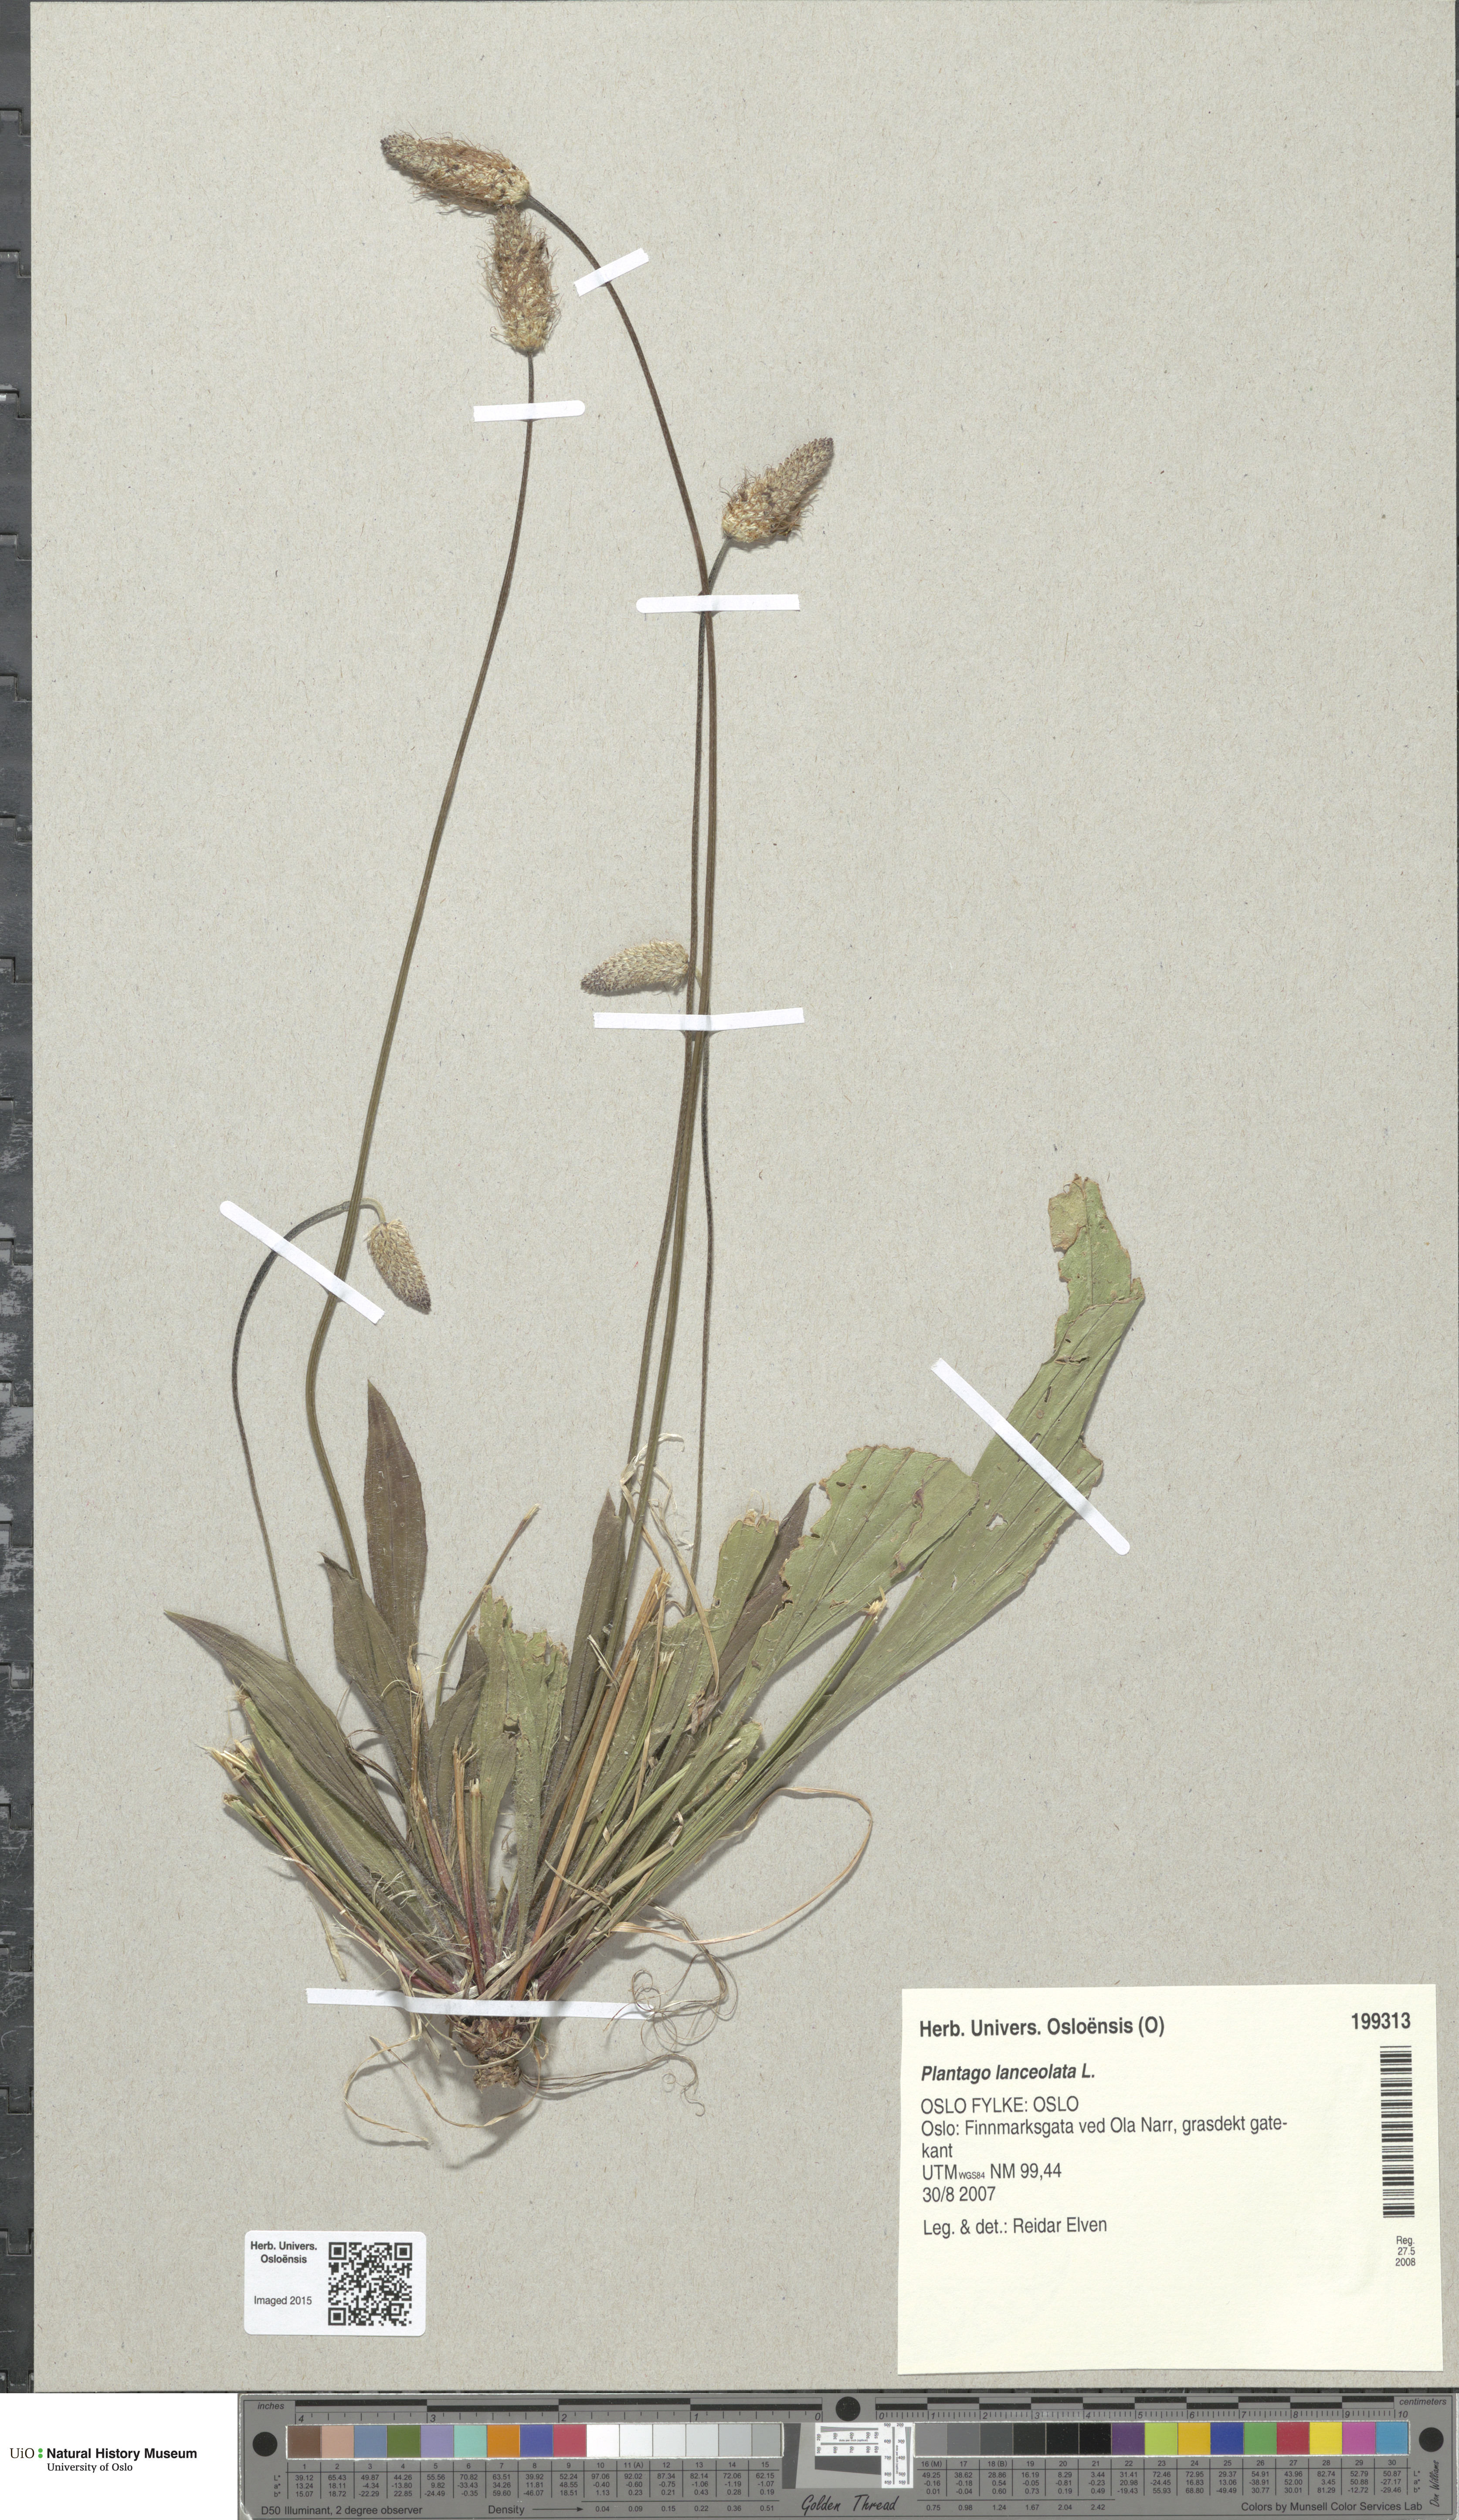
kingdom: Plantae
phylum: Tracheophyta
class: Magnoliopsida
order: Lamiales
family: Plantaginaceae
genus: Plantago
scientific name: Plantago lanceolata
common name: Ribwort plantain
